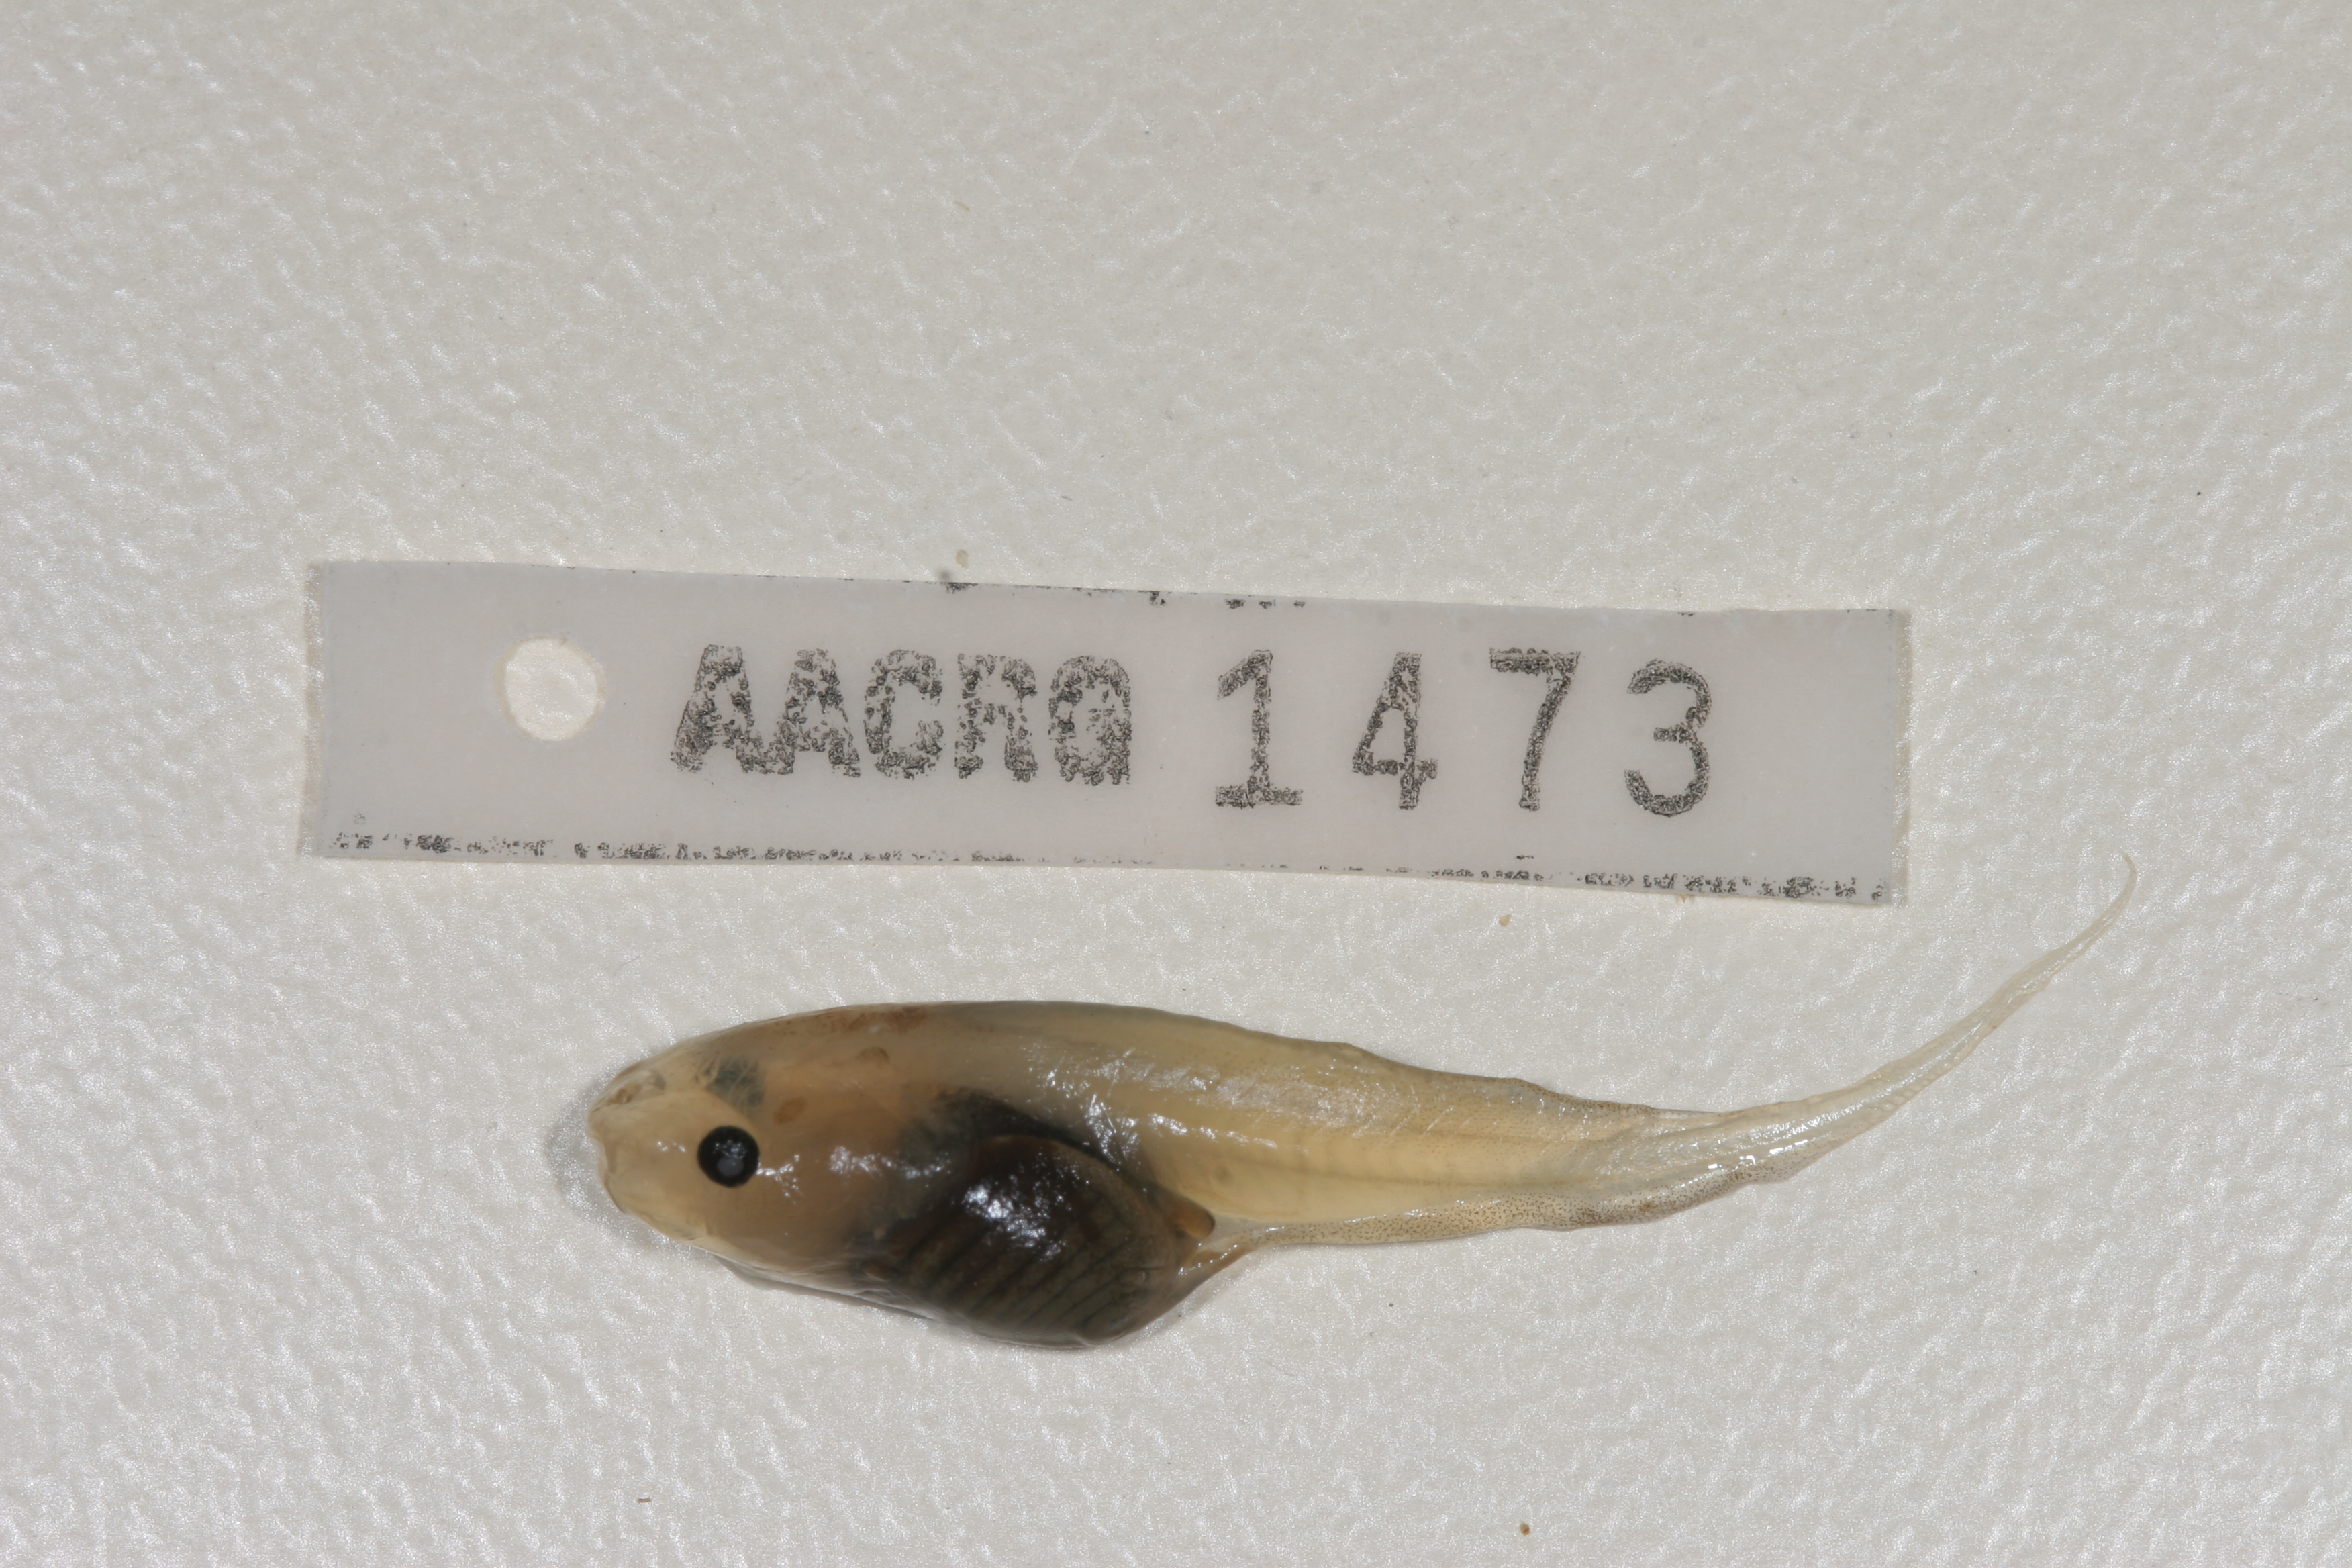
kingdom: Animalia
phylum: Chordata
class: Amphibia
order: Anura
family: Pipidae
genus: Xenopus
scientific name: Xenopus muelleri
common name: Muller's clawed frog
